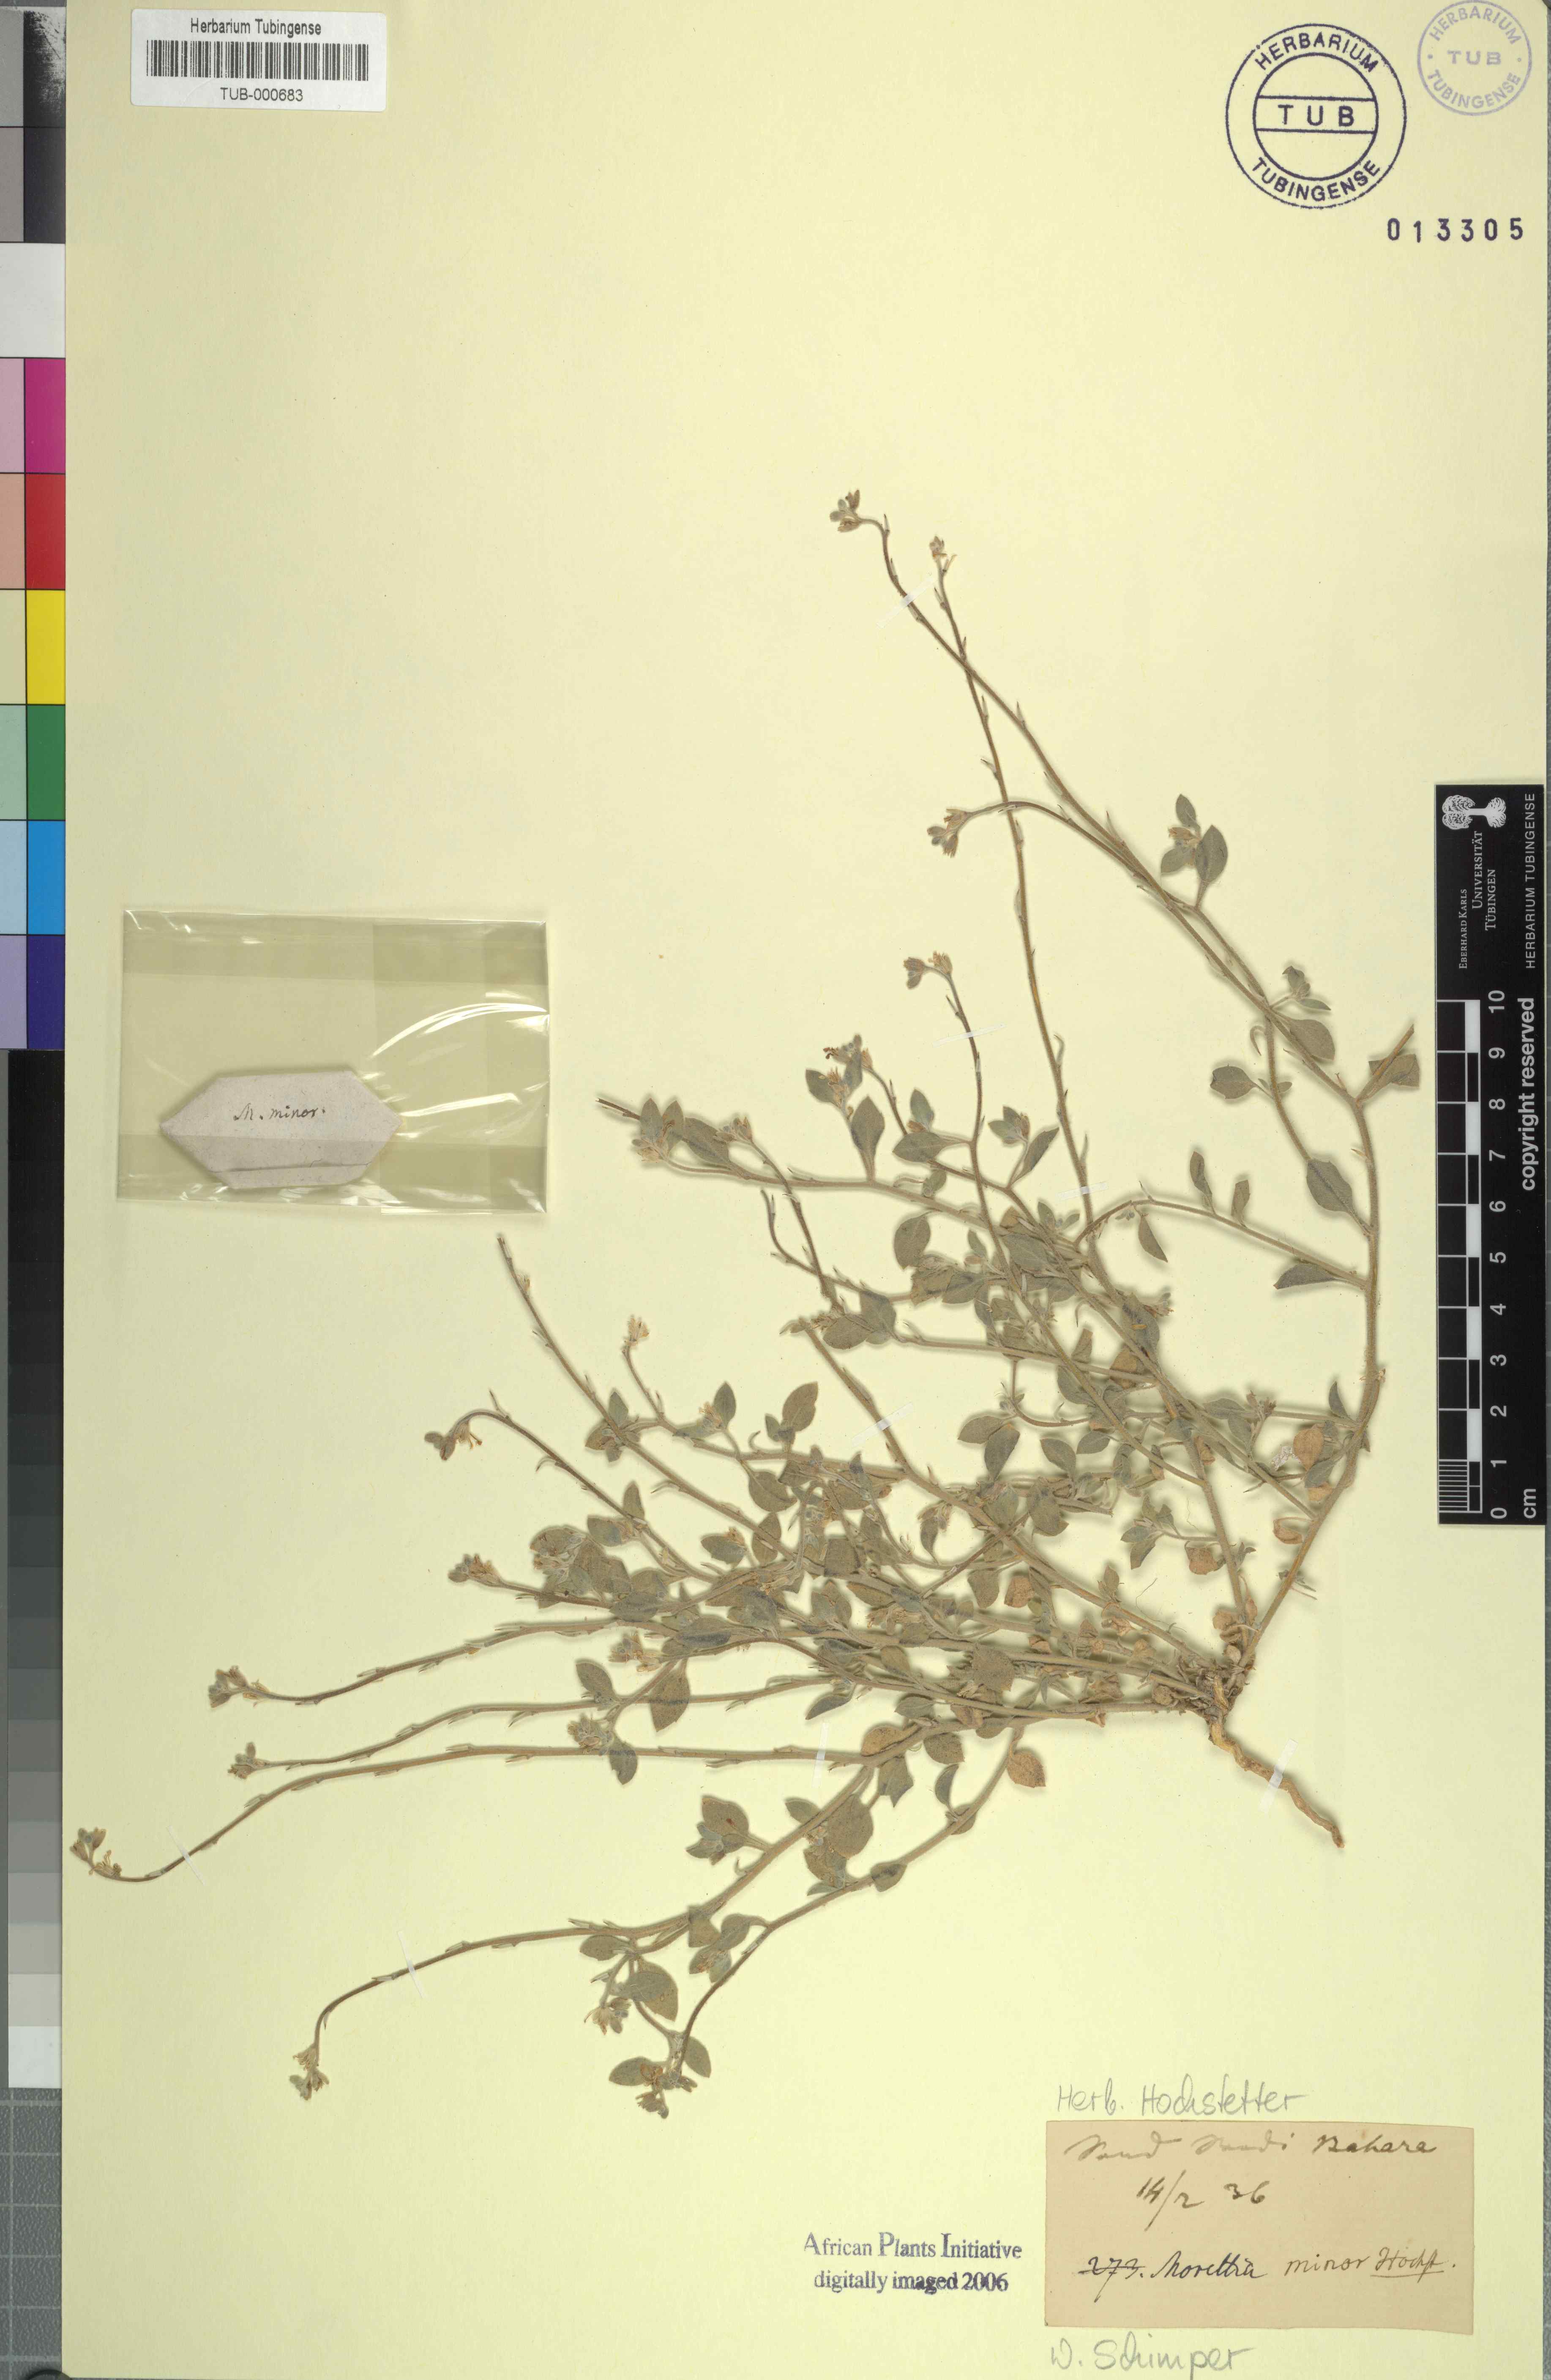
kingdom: Plantae
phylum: Tracheophyta
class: Magnoliopsida
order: Brassicales
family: Brassicaceae
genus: Morettia
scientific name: Morettia
